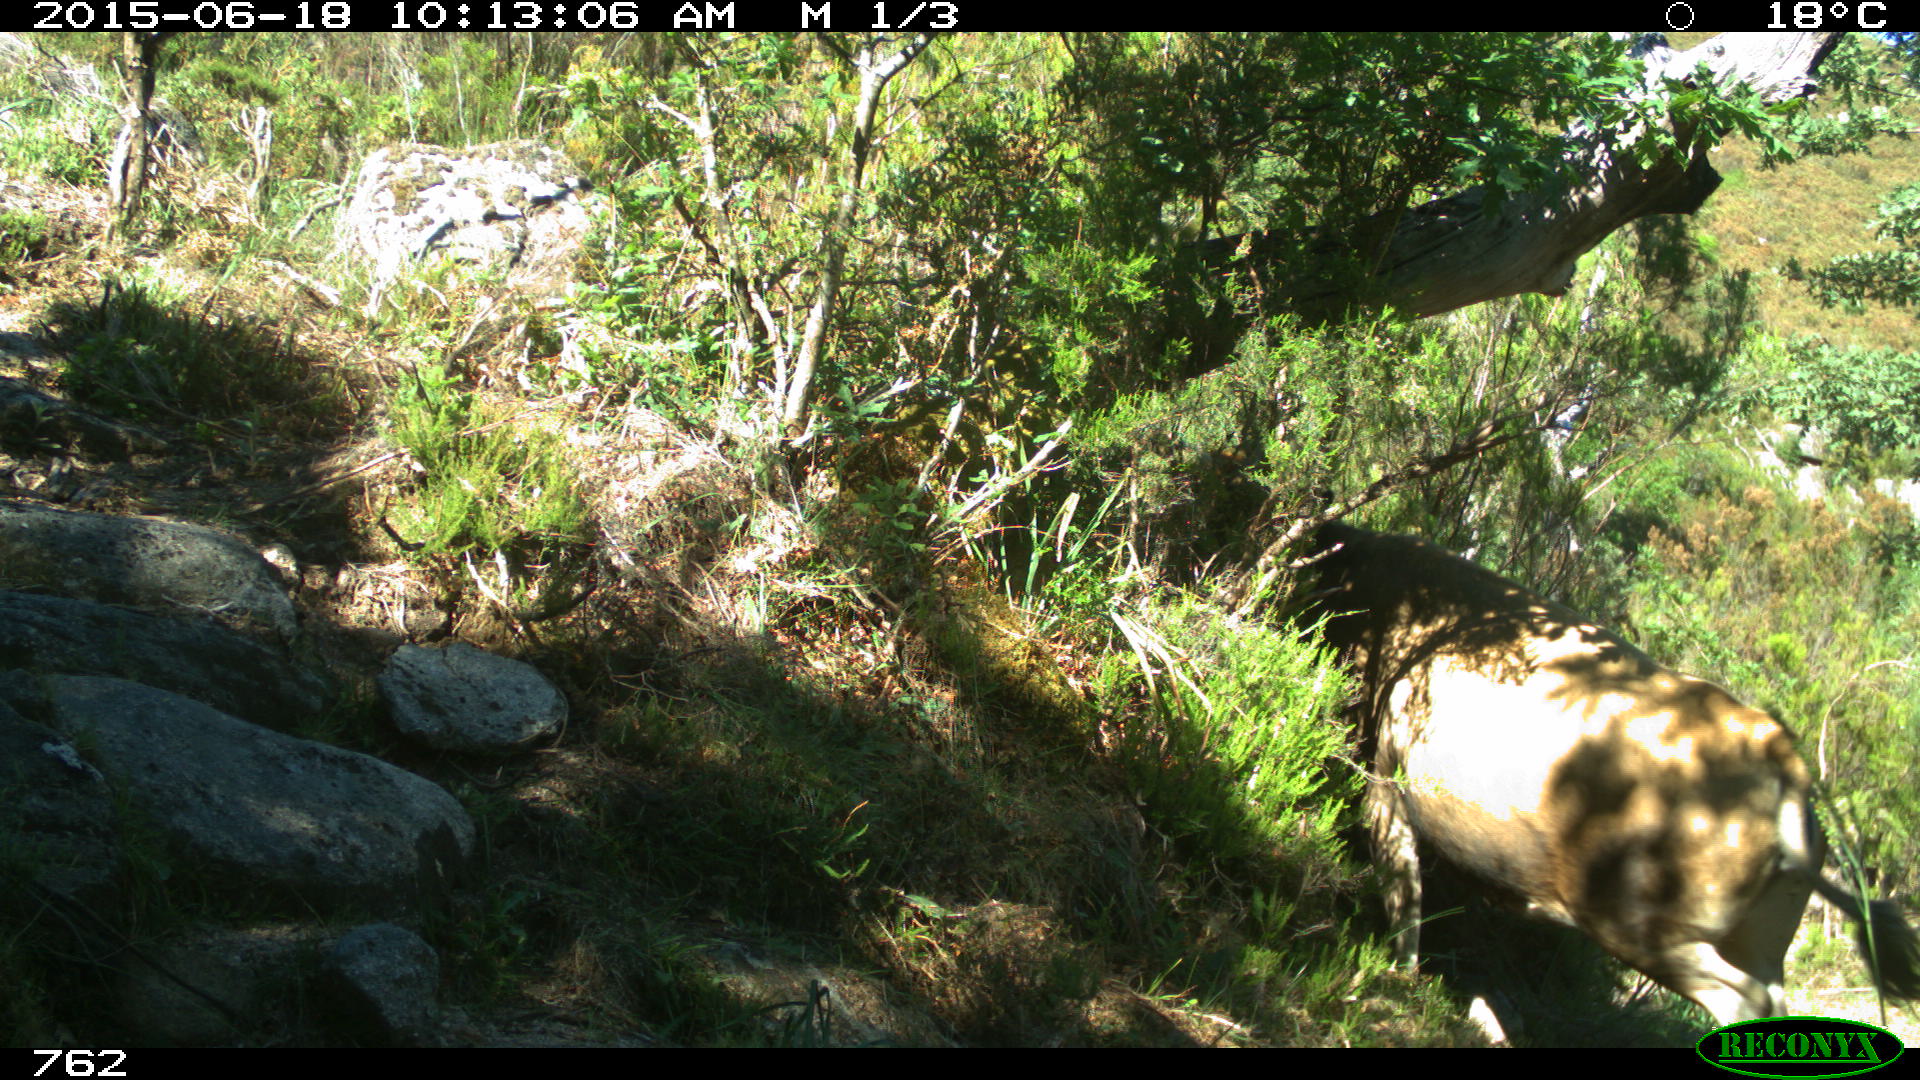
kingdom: Animalia
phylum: Chordata
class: Mammalia
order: Artiodactyla
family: Bovidae
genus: Bos
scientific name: Bos taurus
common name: Domesticated cattle
